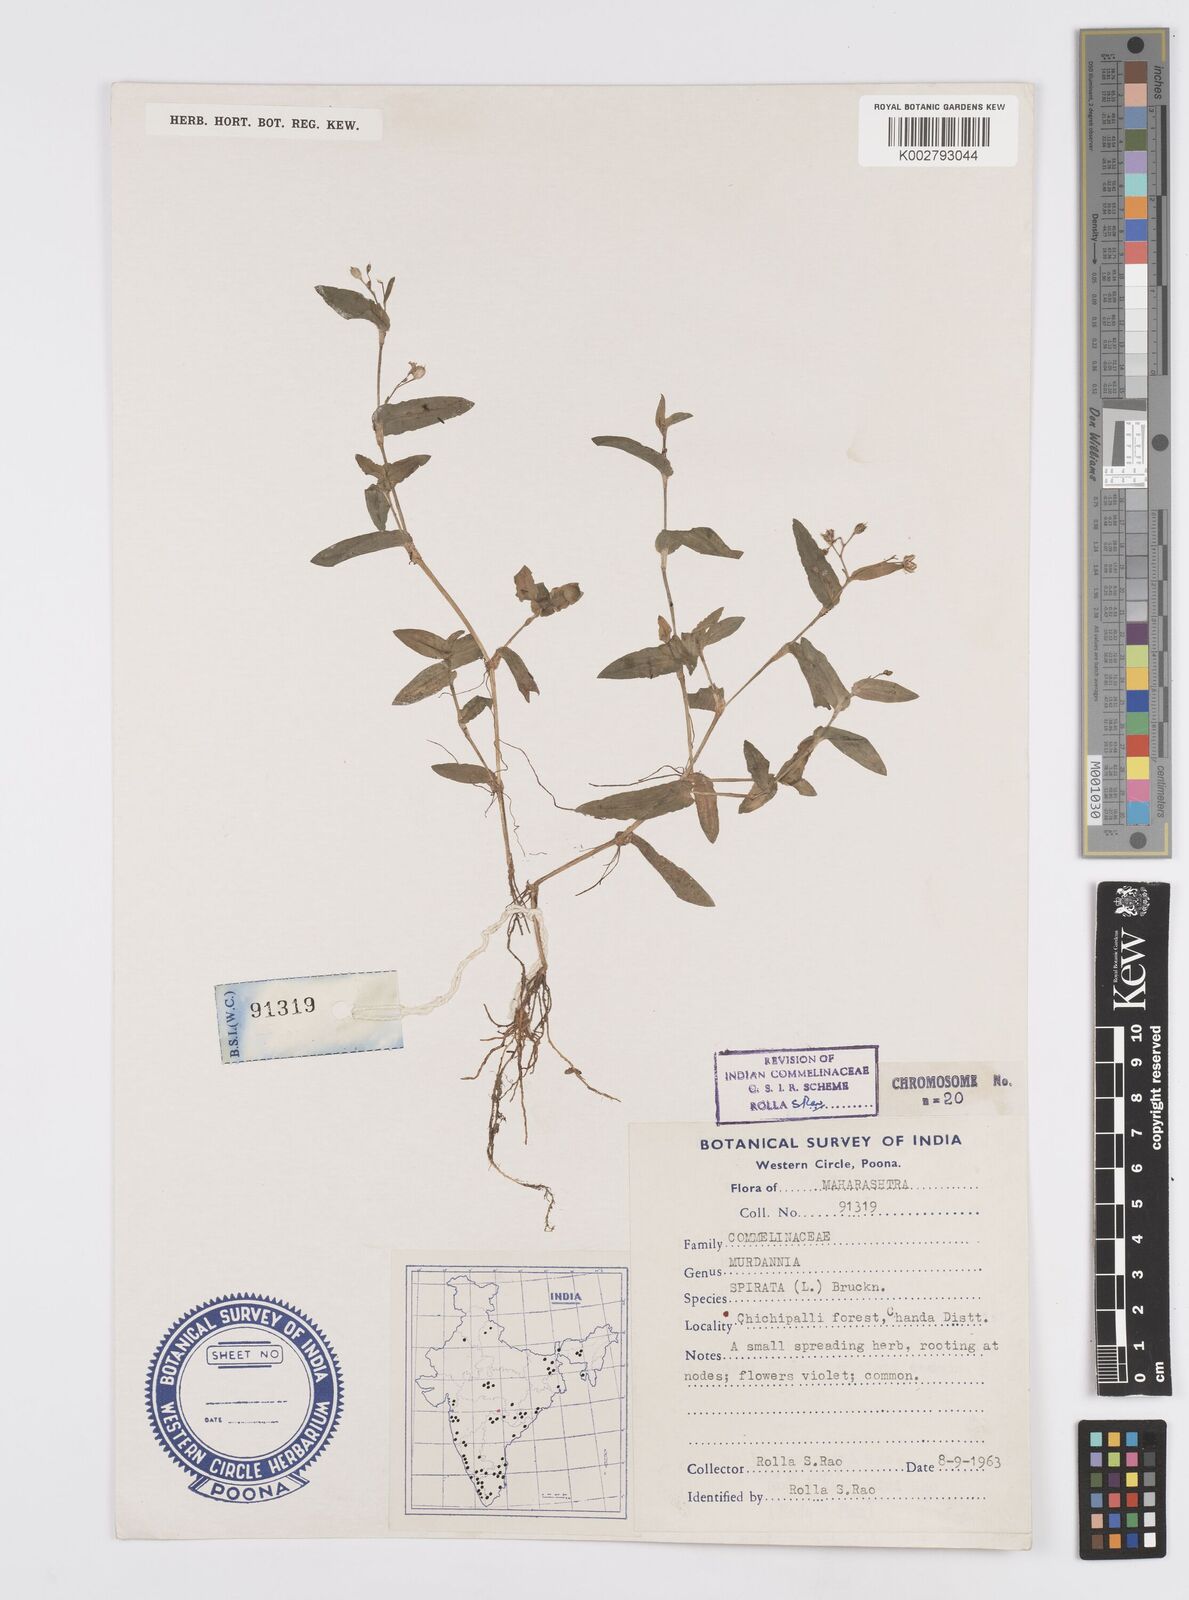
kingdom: Plantae
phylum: Tracheophyta
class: Liliopsida
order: Commelinales
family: Commelinaceae
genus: Murdannia
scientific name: Murdannia spirata
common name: Asiatic dewflower
